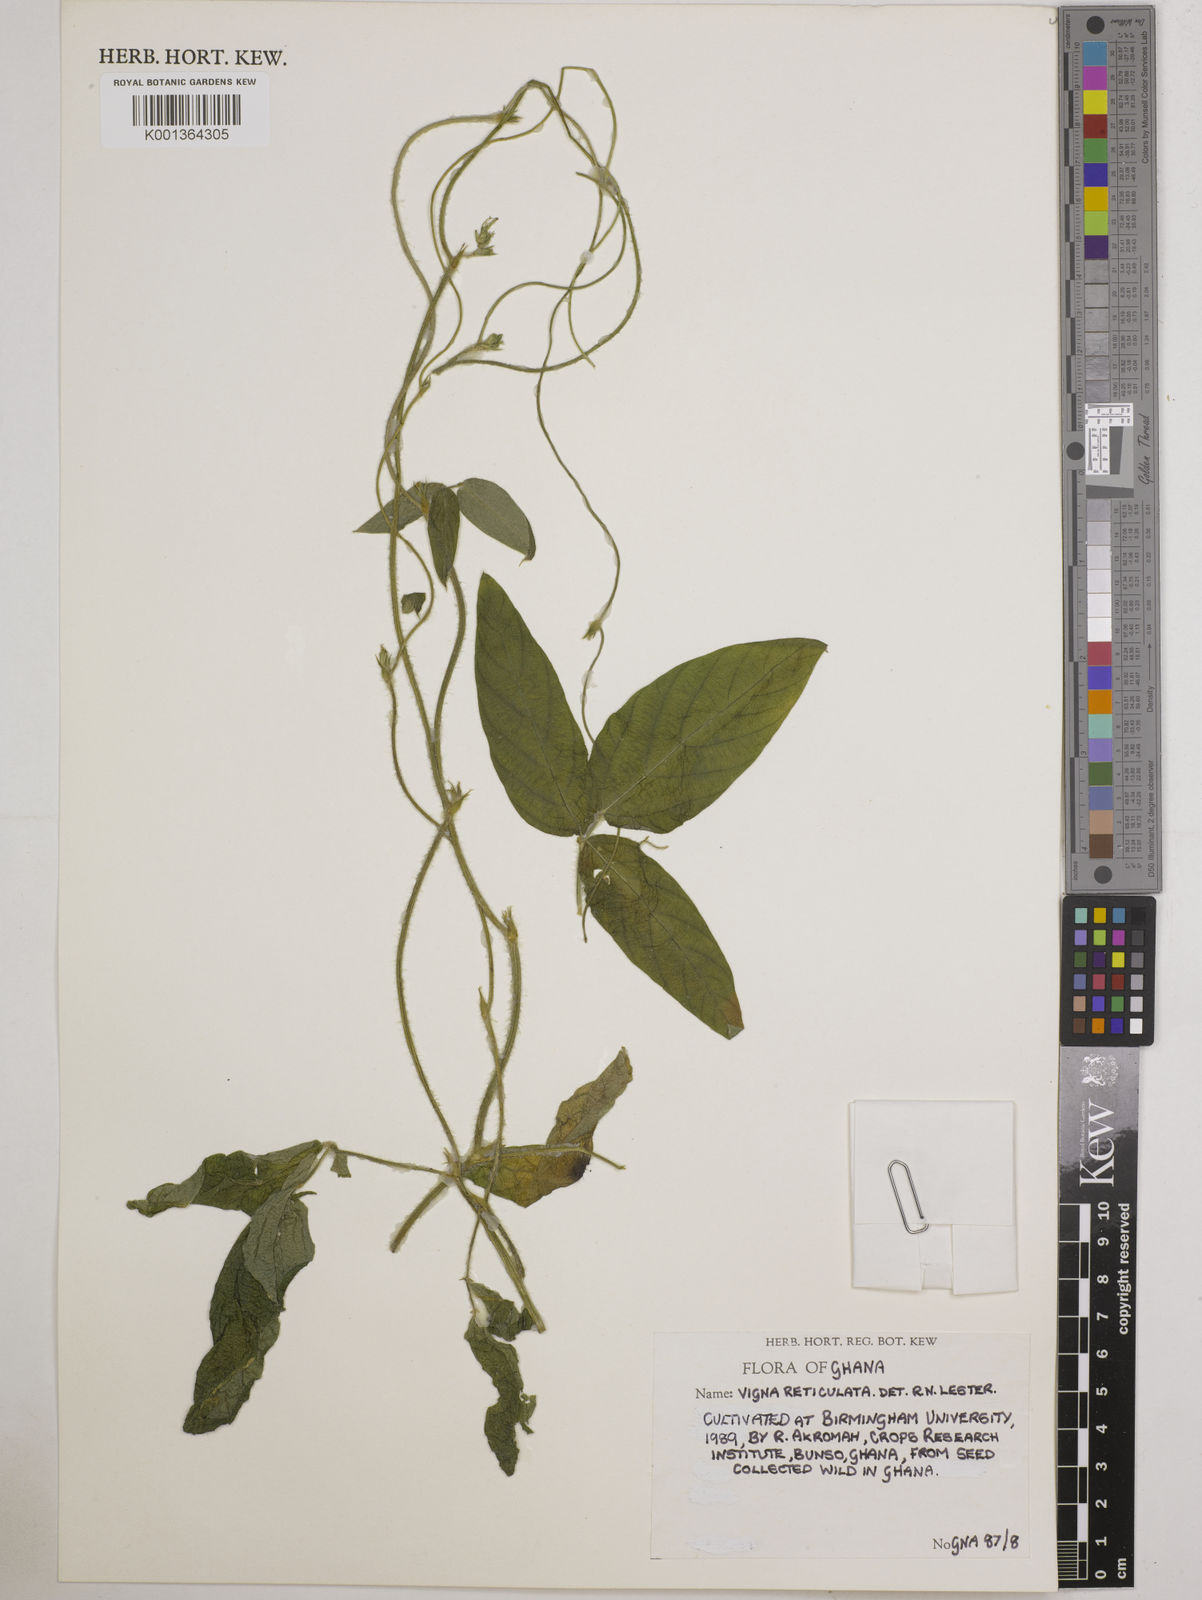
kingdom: Plantae
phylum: Tracheophyta
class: Magnoliopsida
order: Fabales
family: Fabaceae
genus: Vigna
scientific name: Vigna
